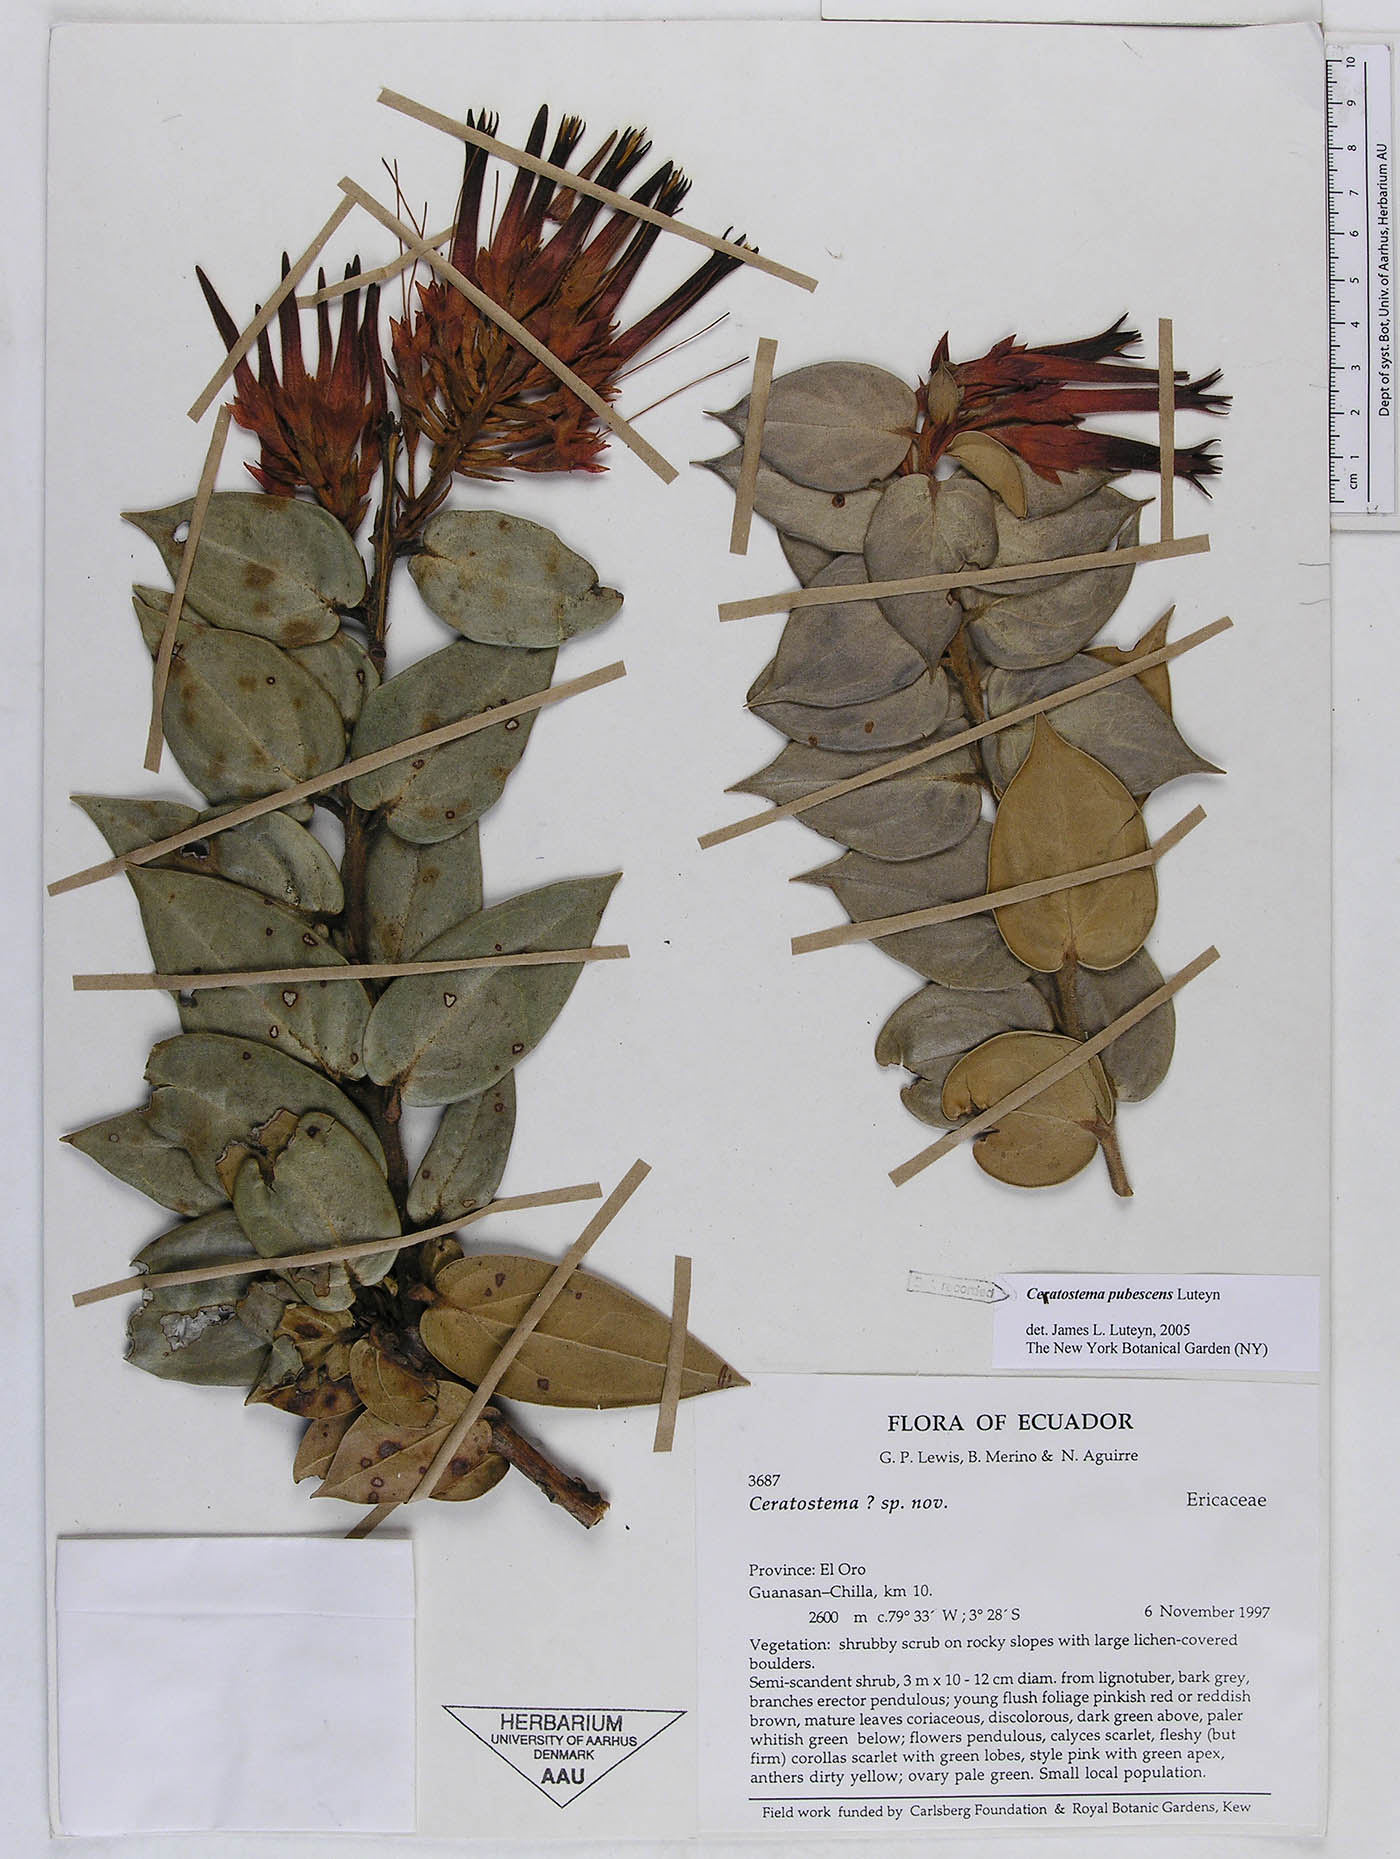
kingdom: Plantae
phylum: Tracheophyta
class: Magnoliopsida
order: Ericales
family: Ericaceae
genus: Ceratostema
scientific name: Ceratostema pubescens
